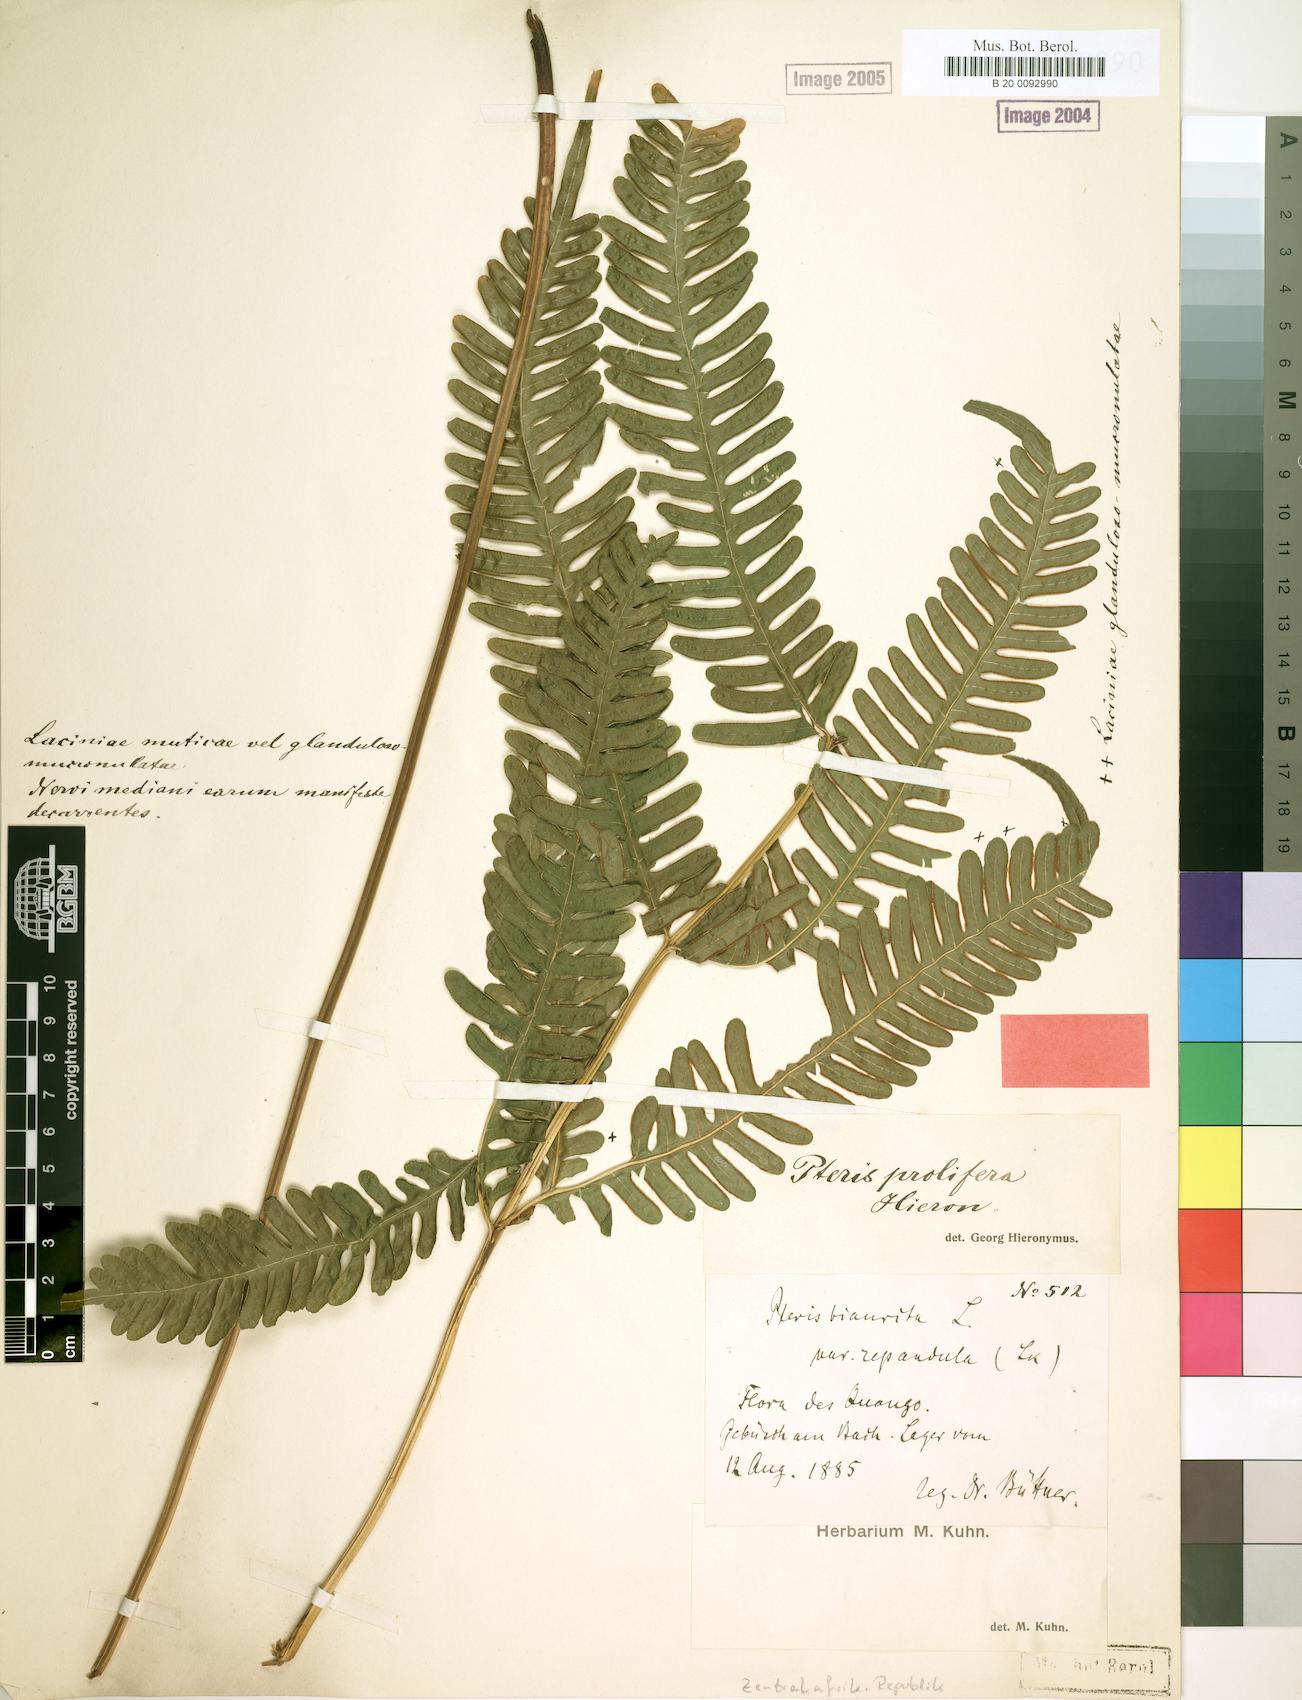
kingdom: Plantae
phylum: Tracheophyta
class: Polypodiopsida
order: Polypodiales
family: Pteridaceae
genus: Pteris
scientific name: Pteris preussii
